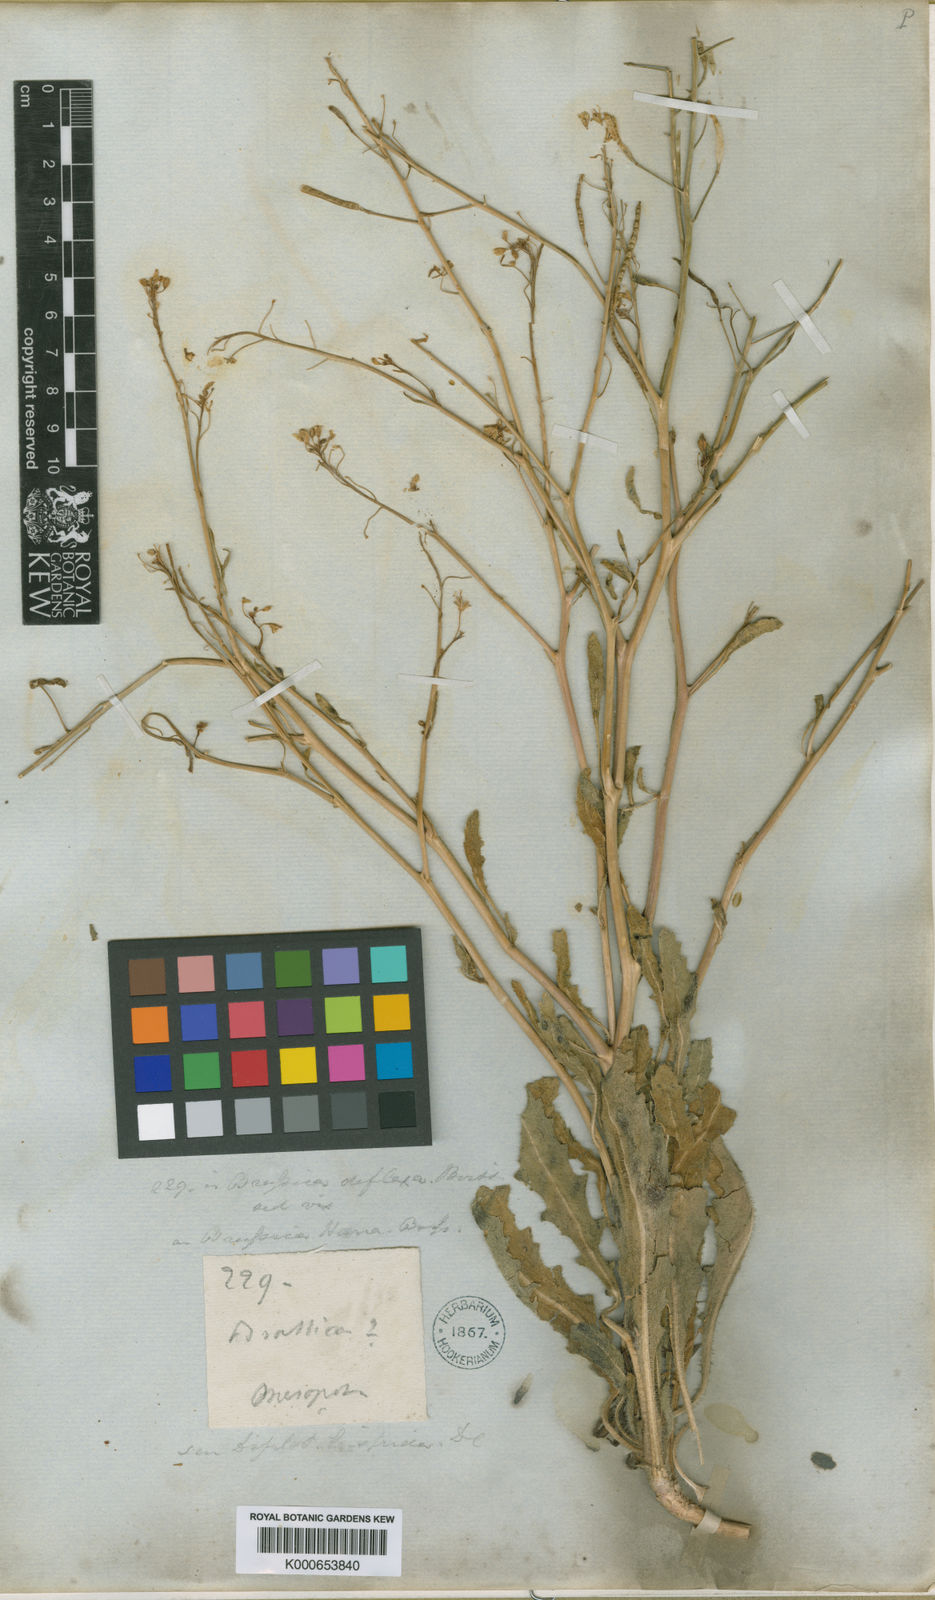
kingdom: Plantae
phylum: Tracheophyta
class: Magnoliopsida
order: Brassicales
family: Brassicaceae
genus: Brassica
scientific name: Brassica deflexa
